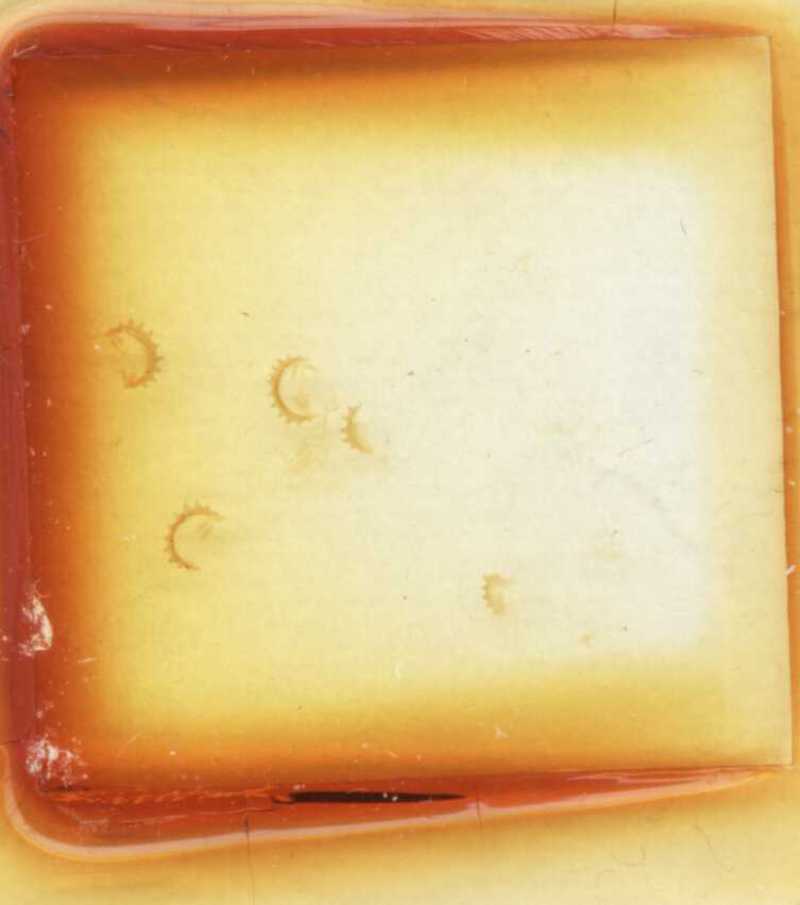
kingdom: Animalia
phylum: Arthropoda
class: Diplopoda
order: Glomerida
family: Glomeridae
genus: Doderia
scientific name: Doderia elbana
